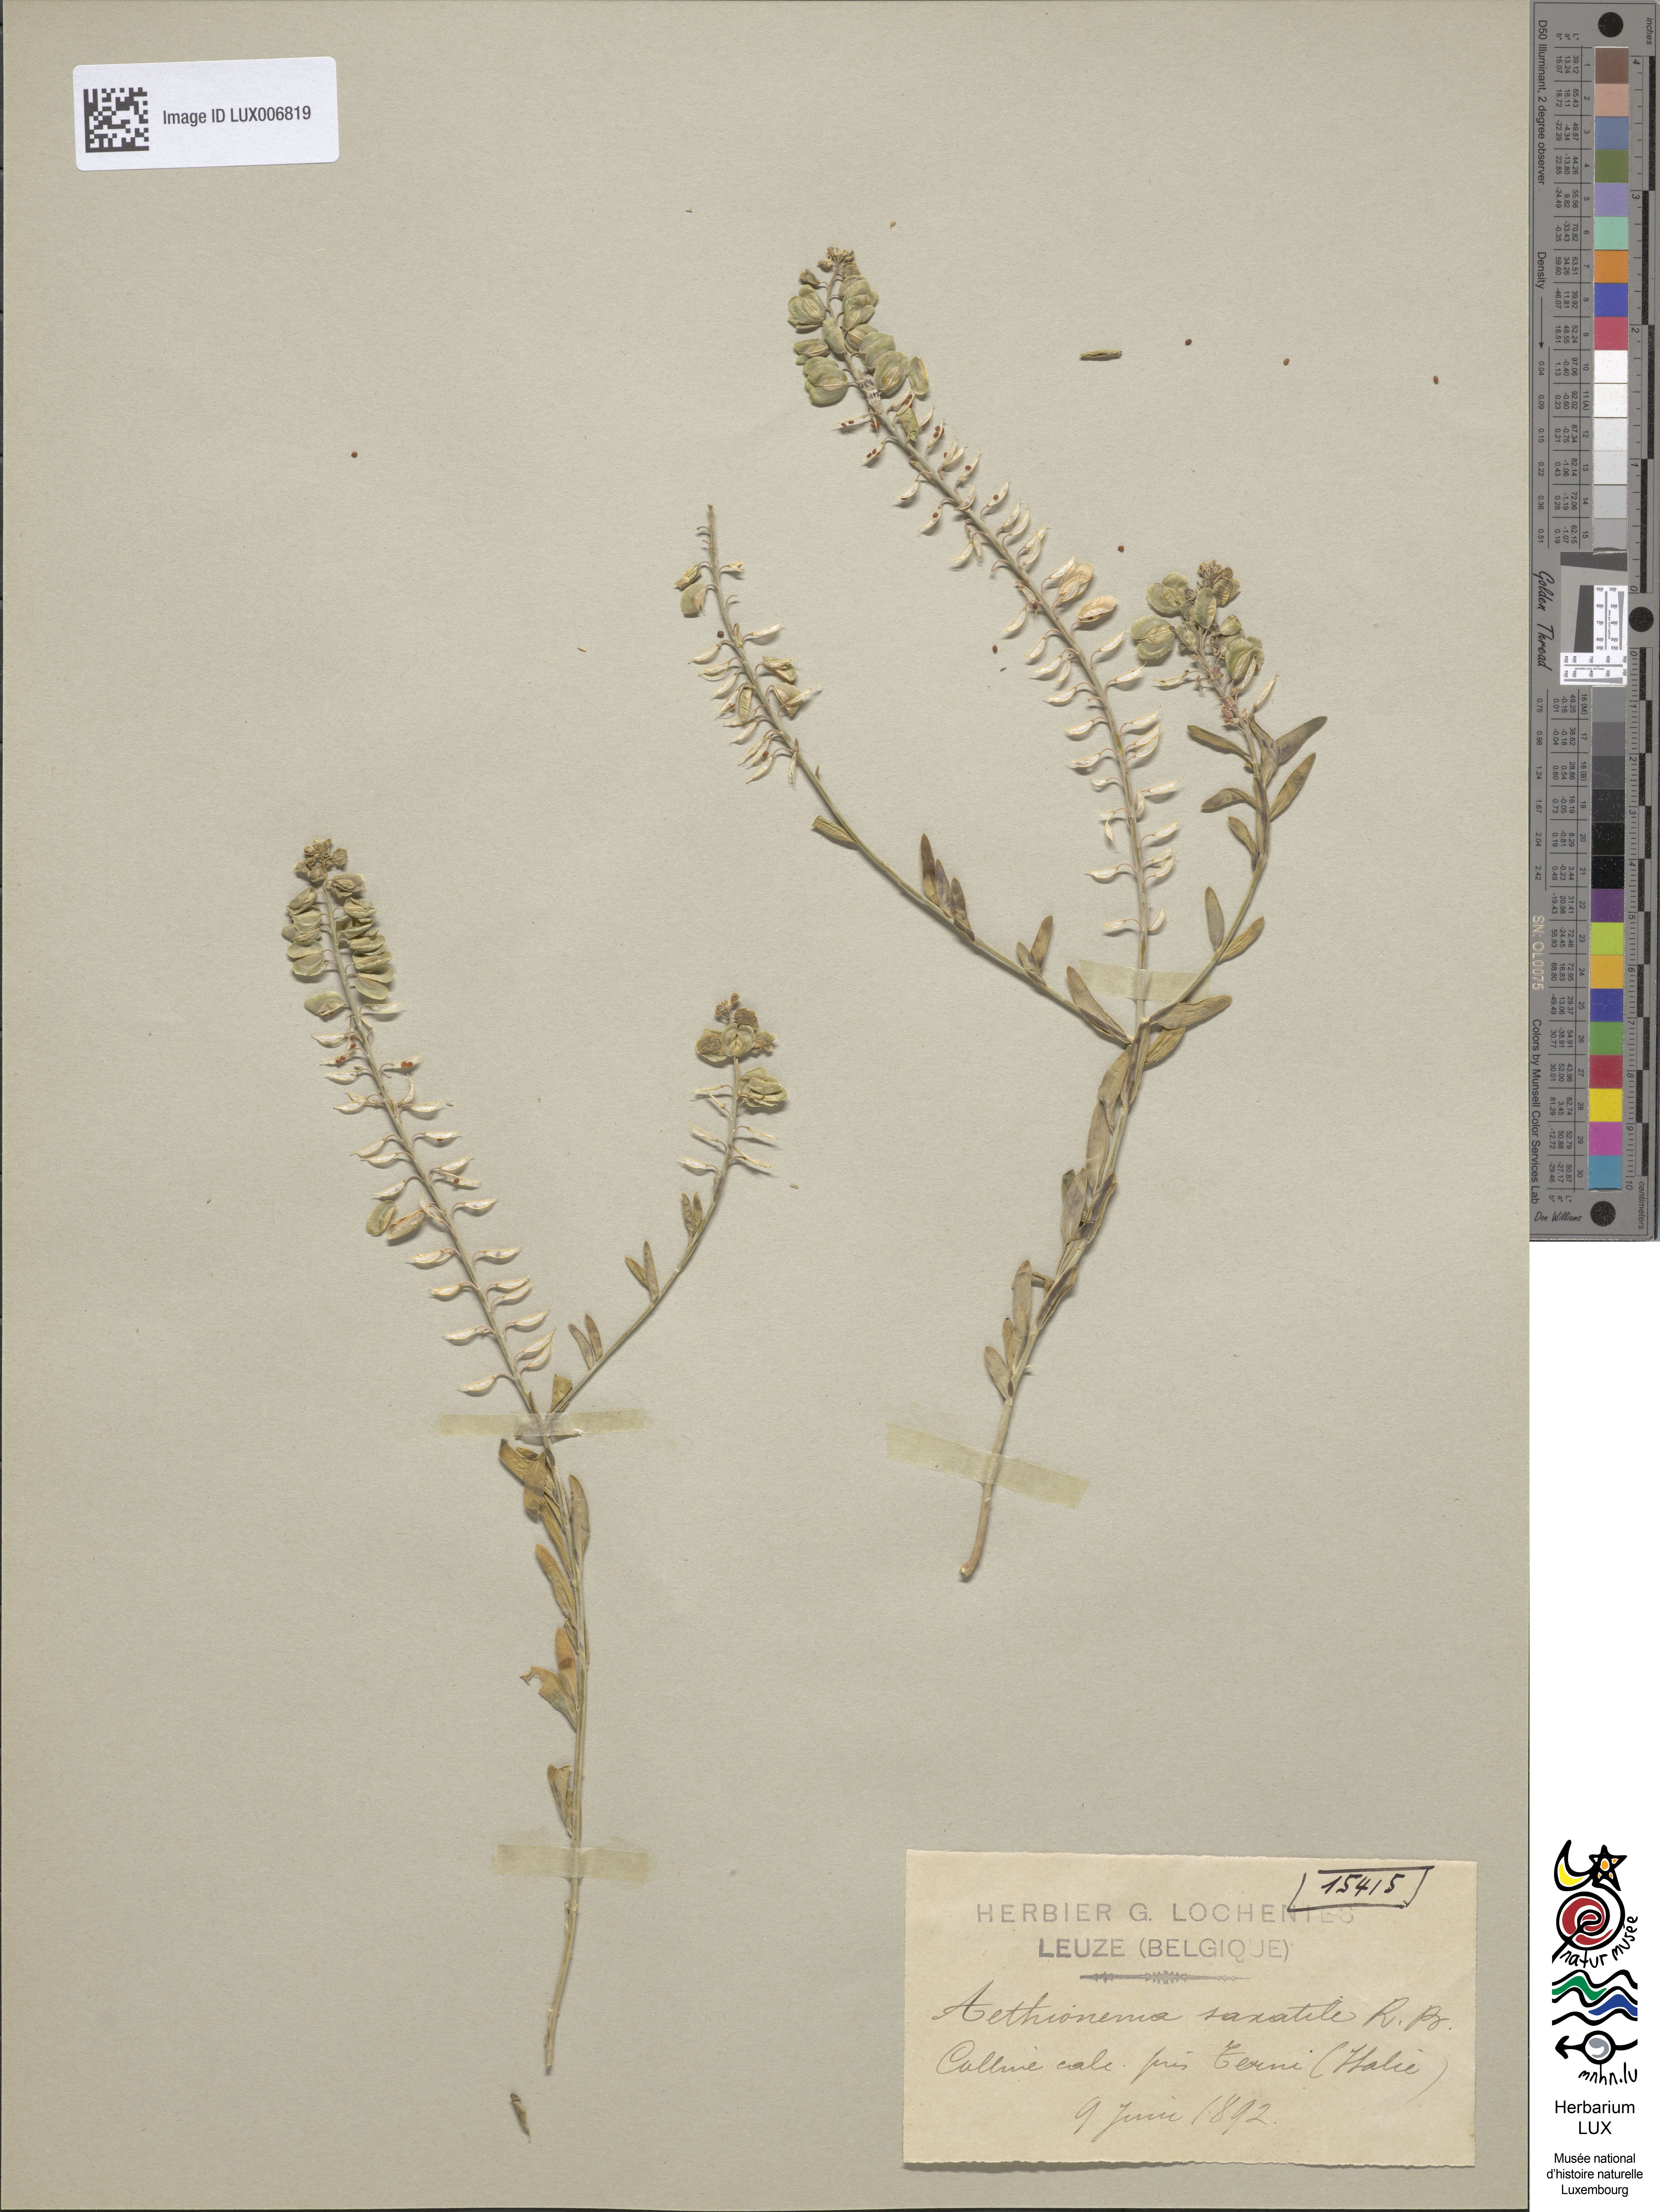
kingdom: Plantae
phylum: Tracheophyta
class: Magnoliopsida
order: Brassicales
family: Brassicaceae
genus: Aethionema
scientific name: Aethionema saxatile
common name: Burnt candytuft
